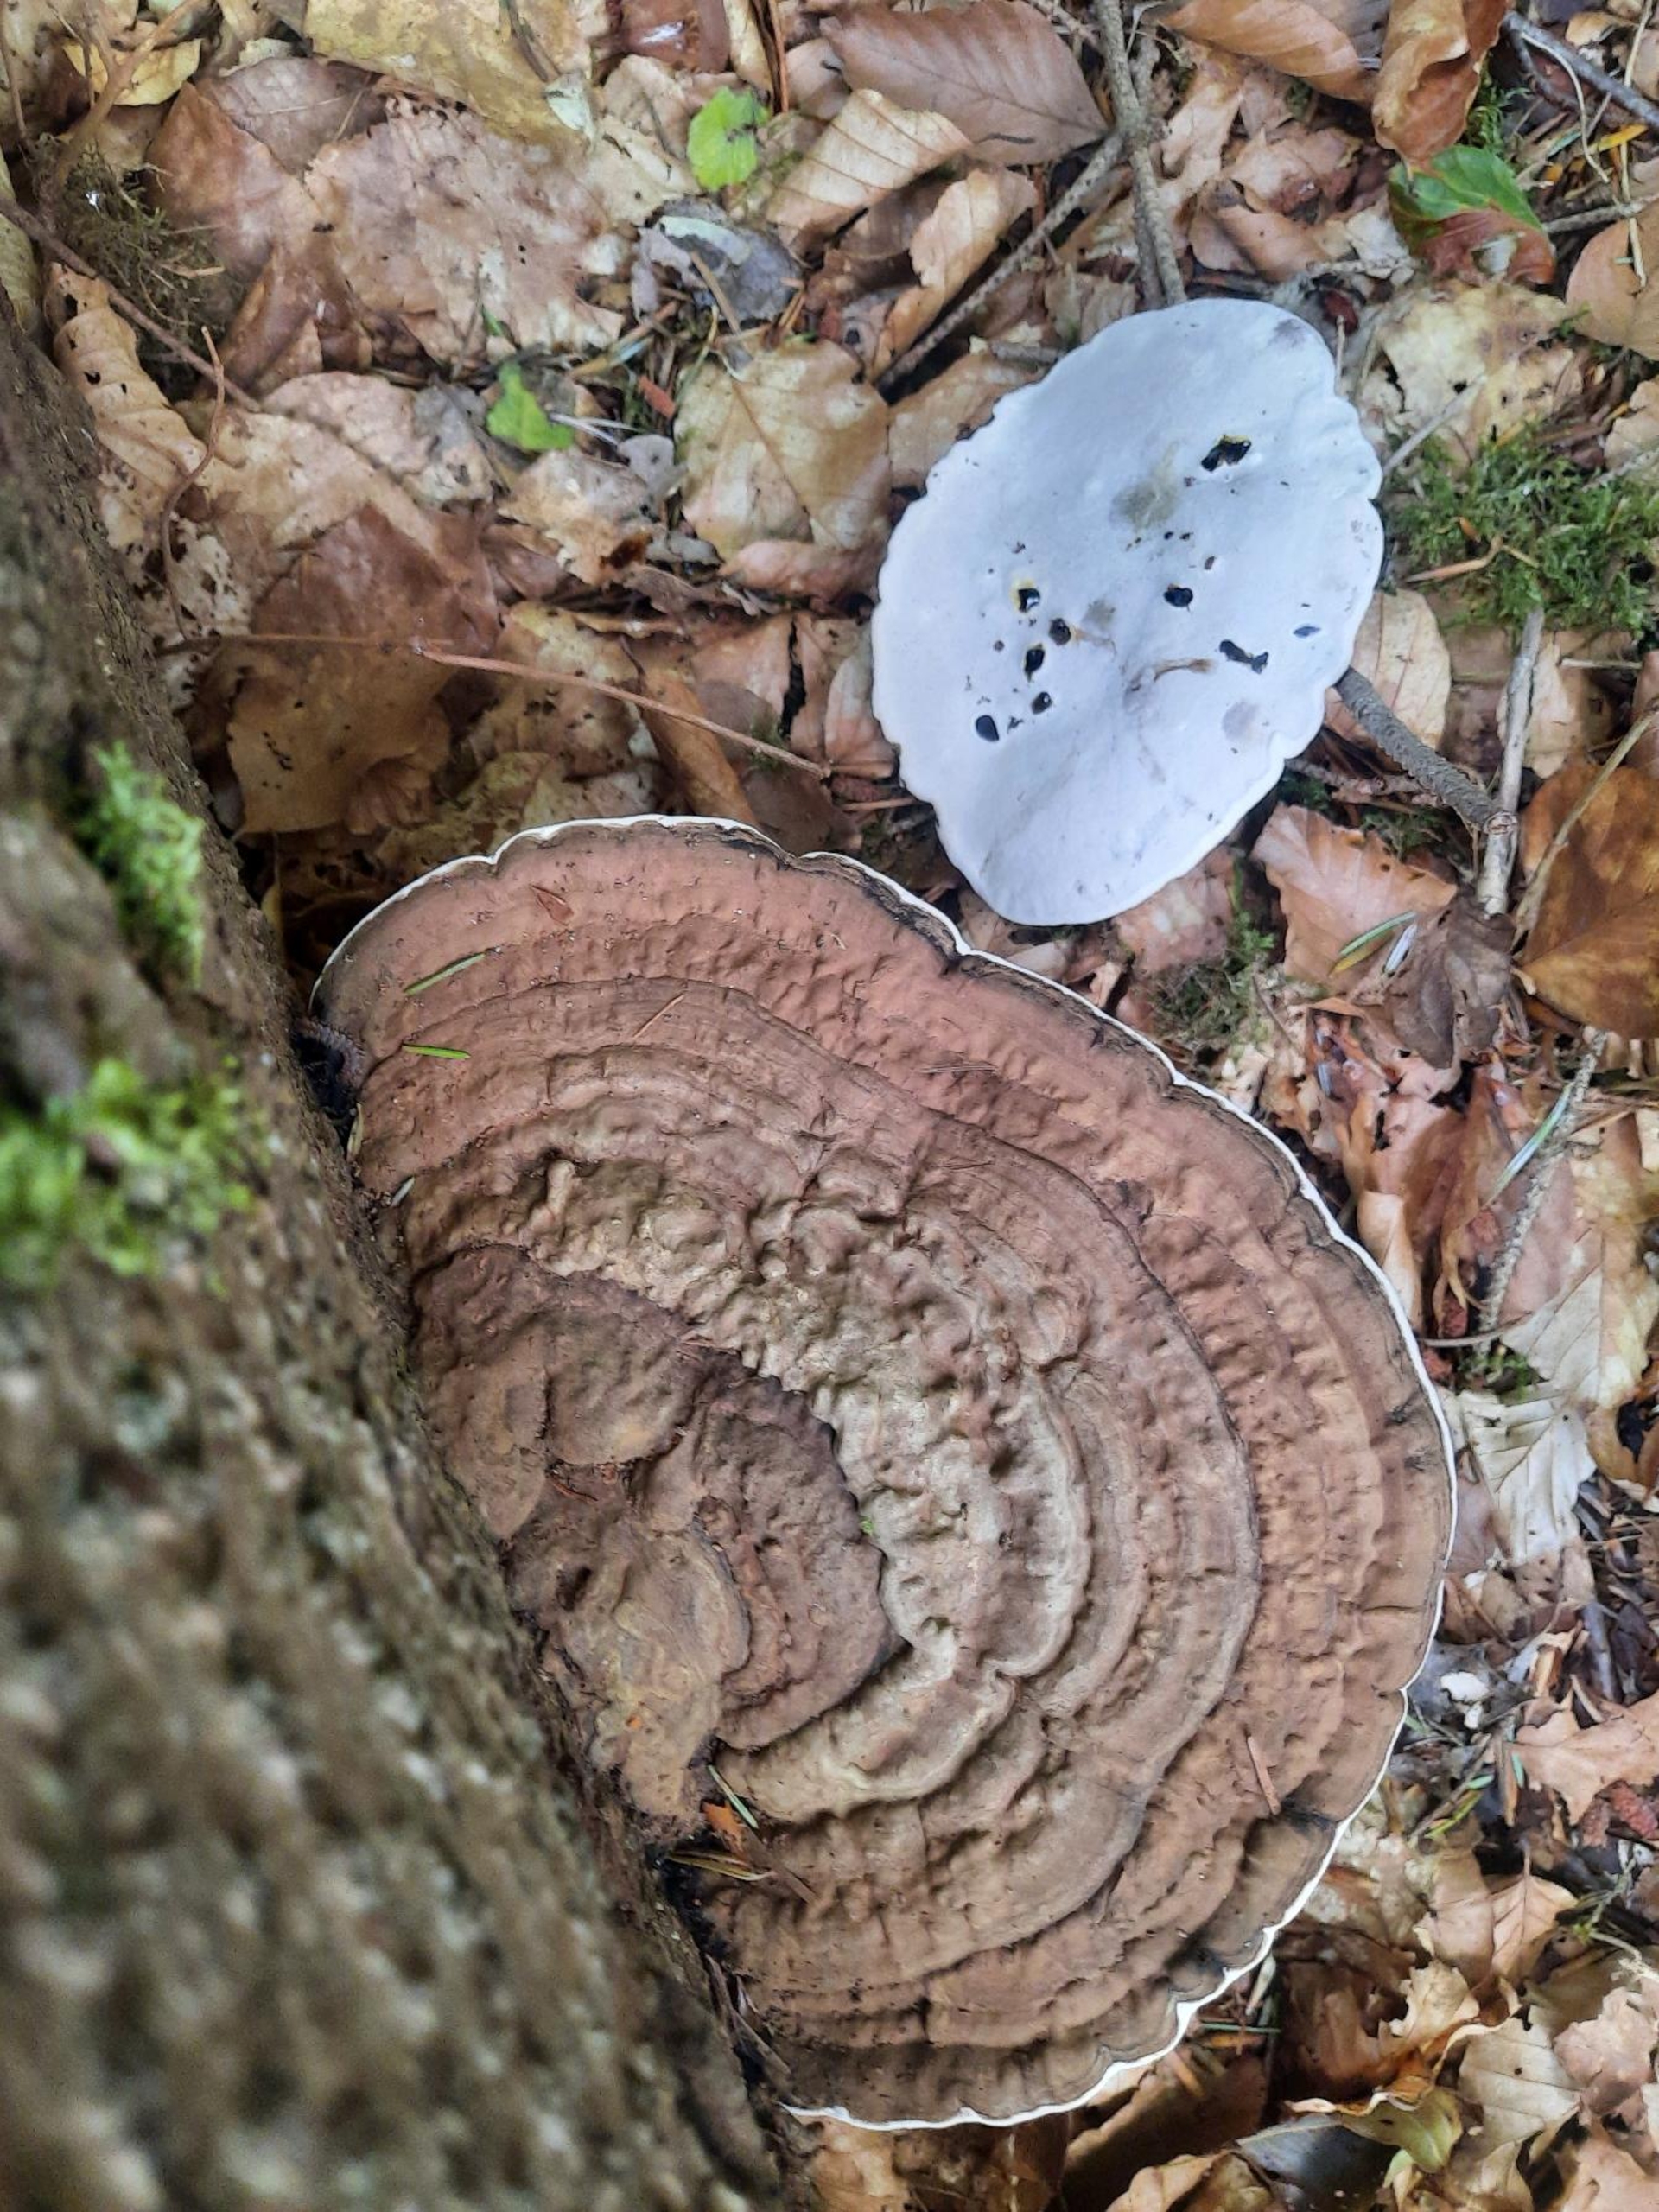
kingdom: Fungi
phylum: Basidiomycota
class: Agaricomycetes
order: Polyporales
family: Polyporaceae
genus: Ganoderma
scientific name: Ganoderma applanatum
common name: Flad lakporesvamp
